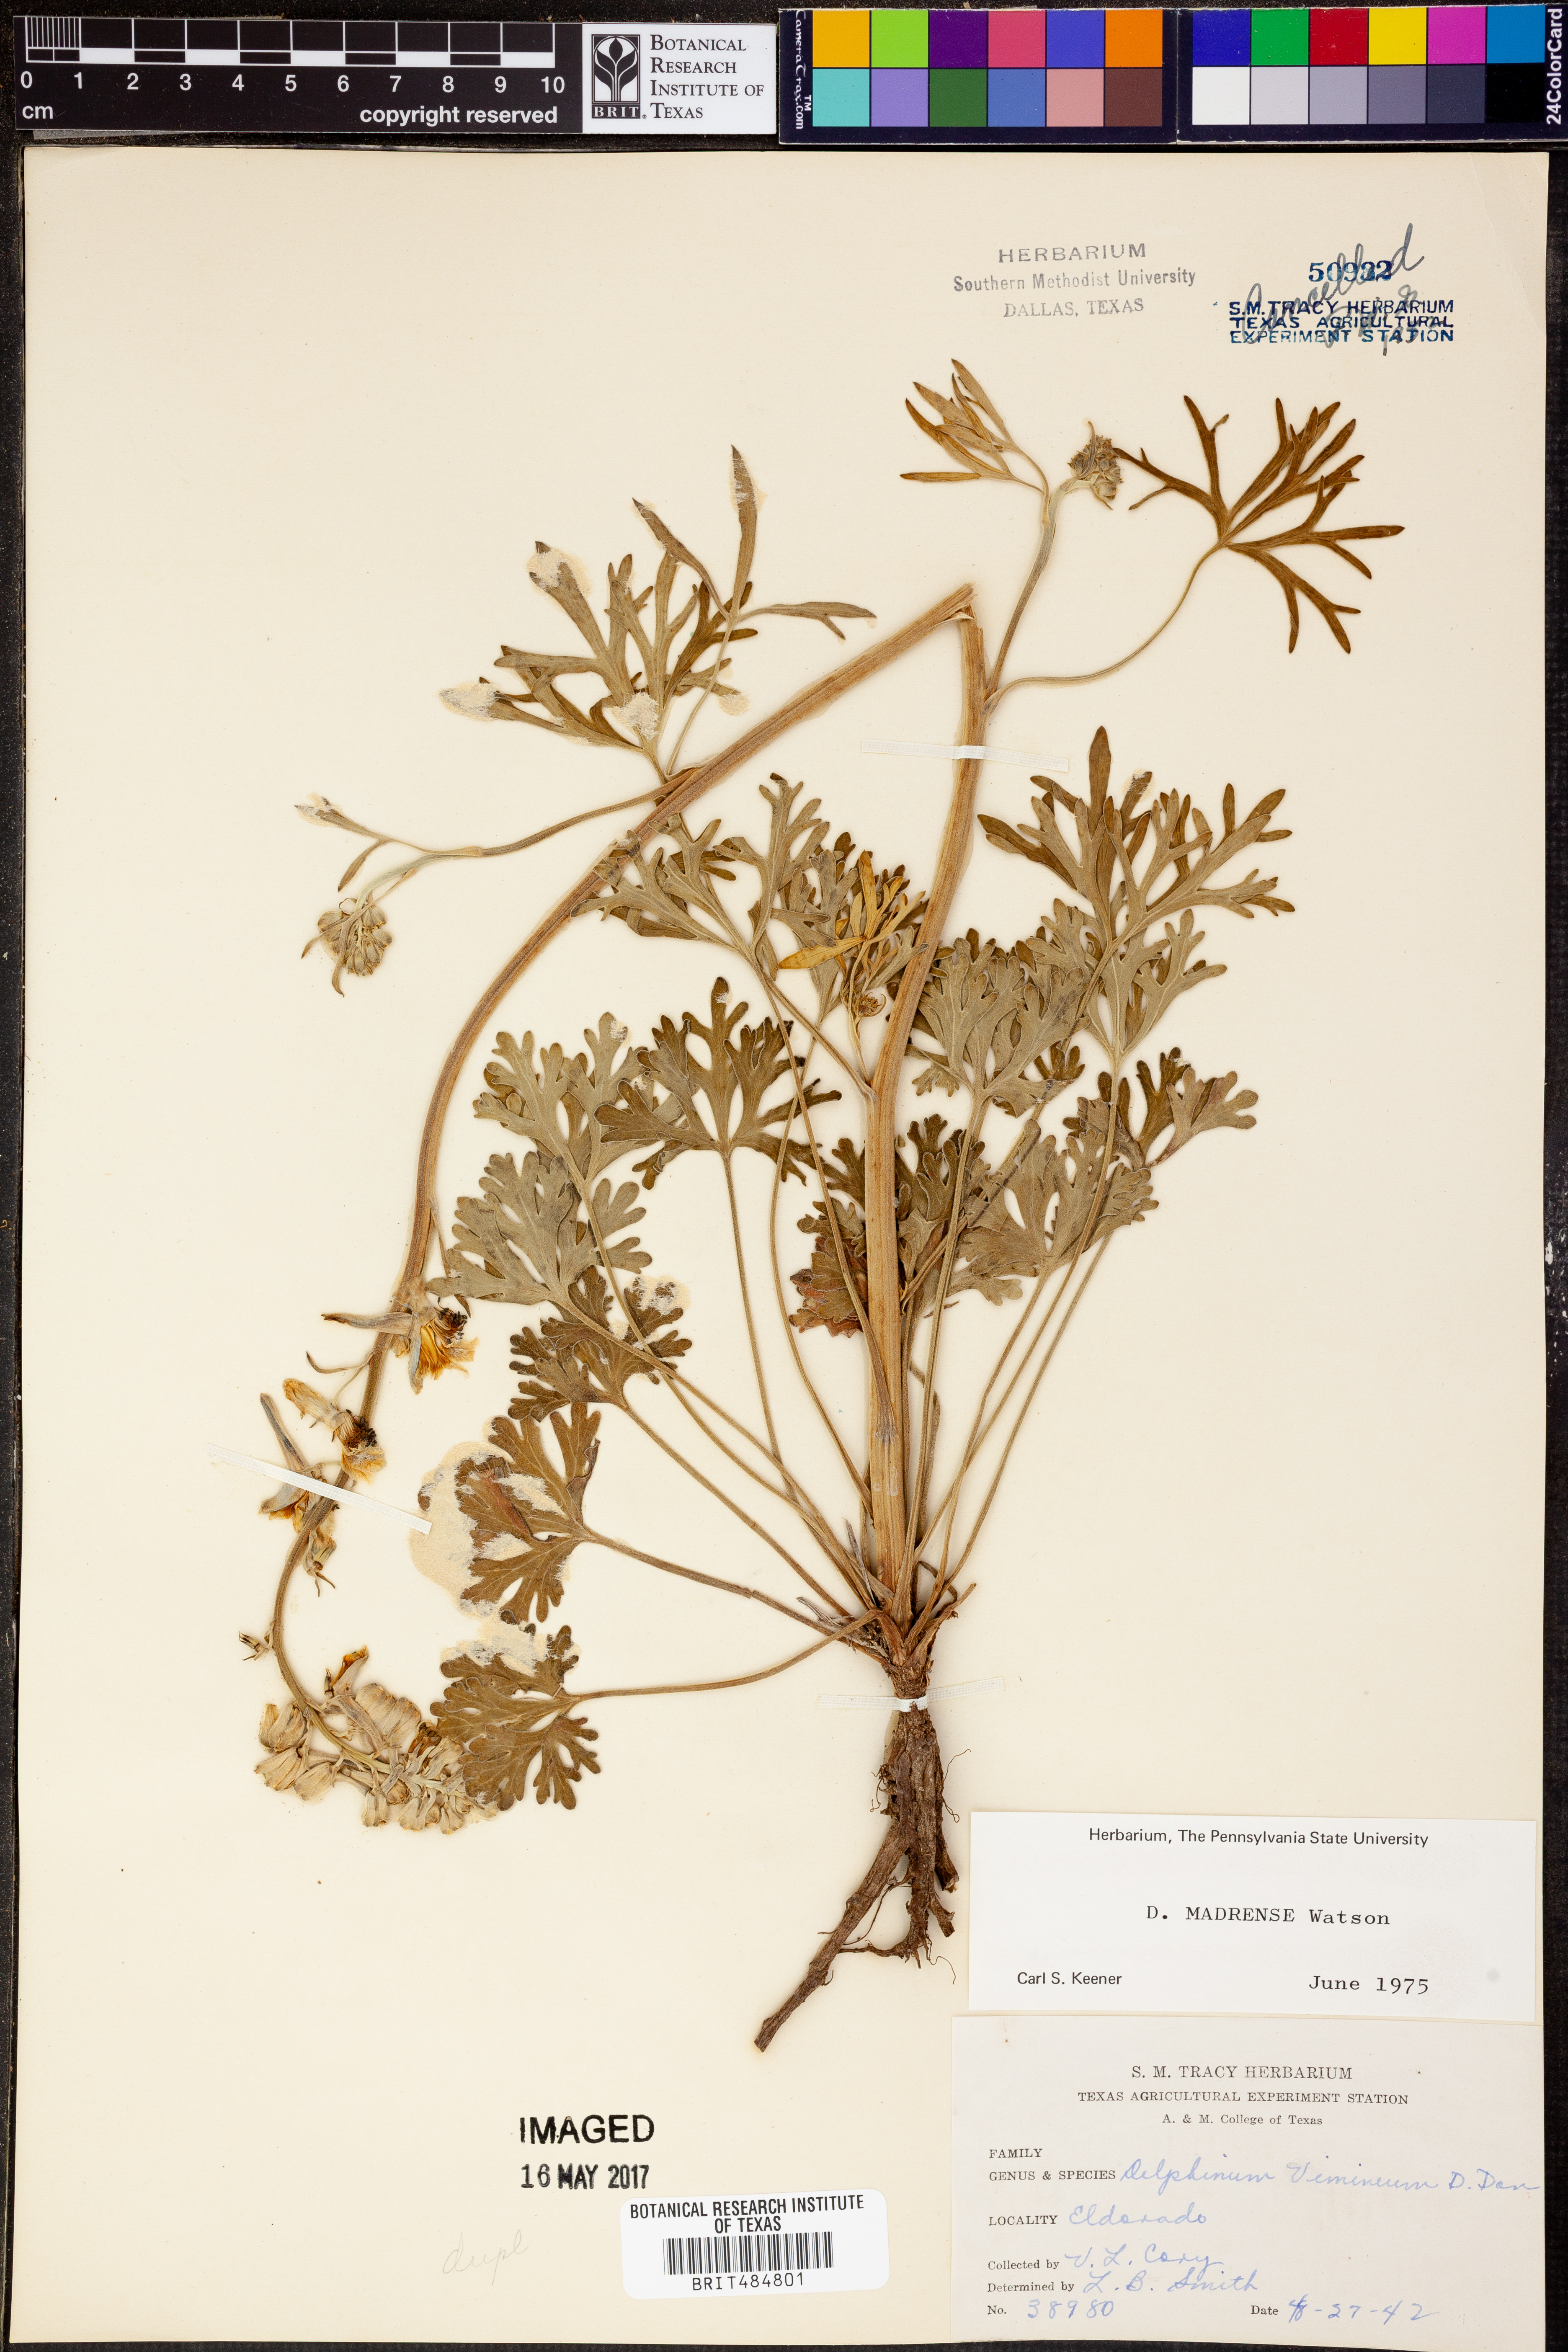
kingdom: Plantae
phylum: Tracheophyta
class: Magnoliopsida
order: Ranunculales
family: Ranunculaceae
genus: Delphinium
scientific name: Delphinium madrense
